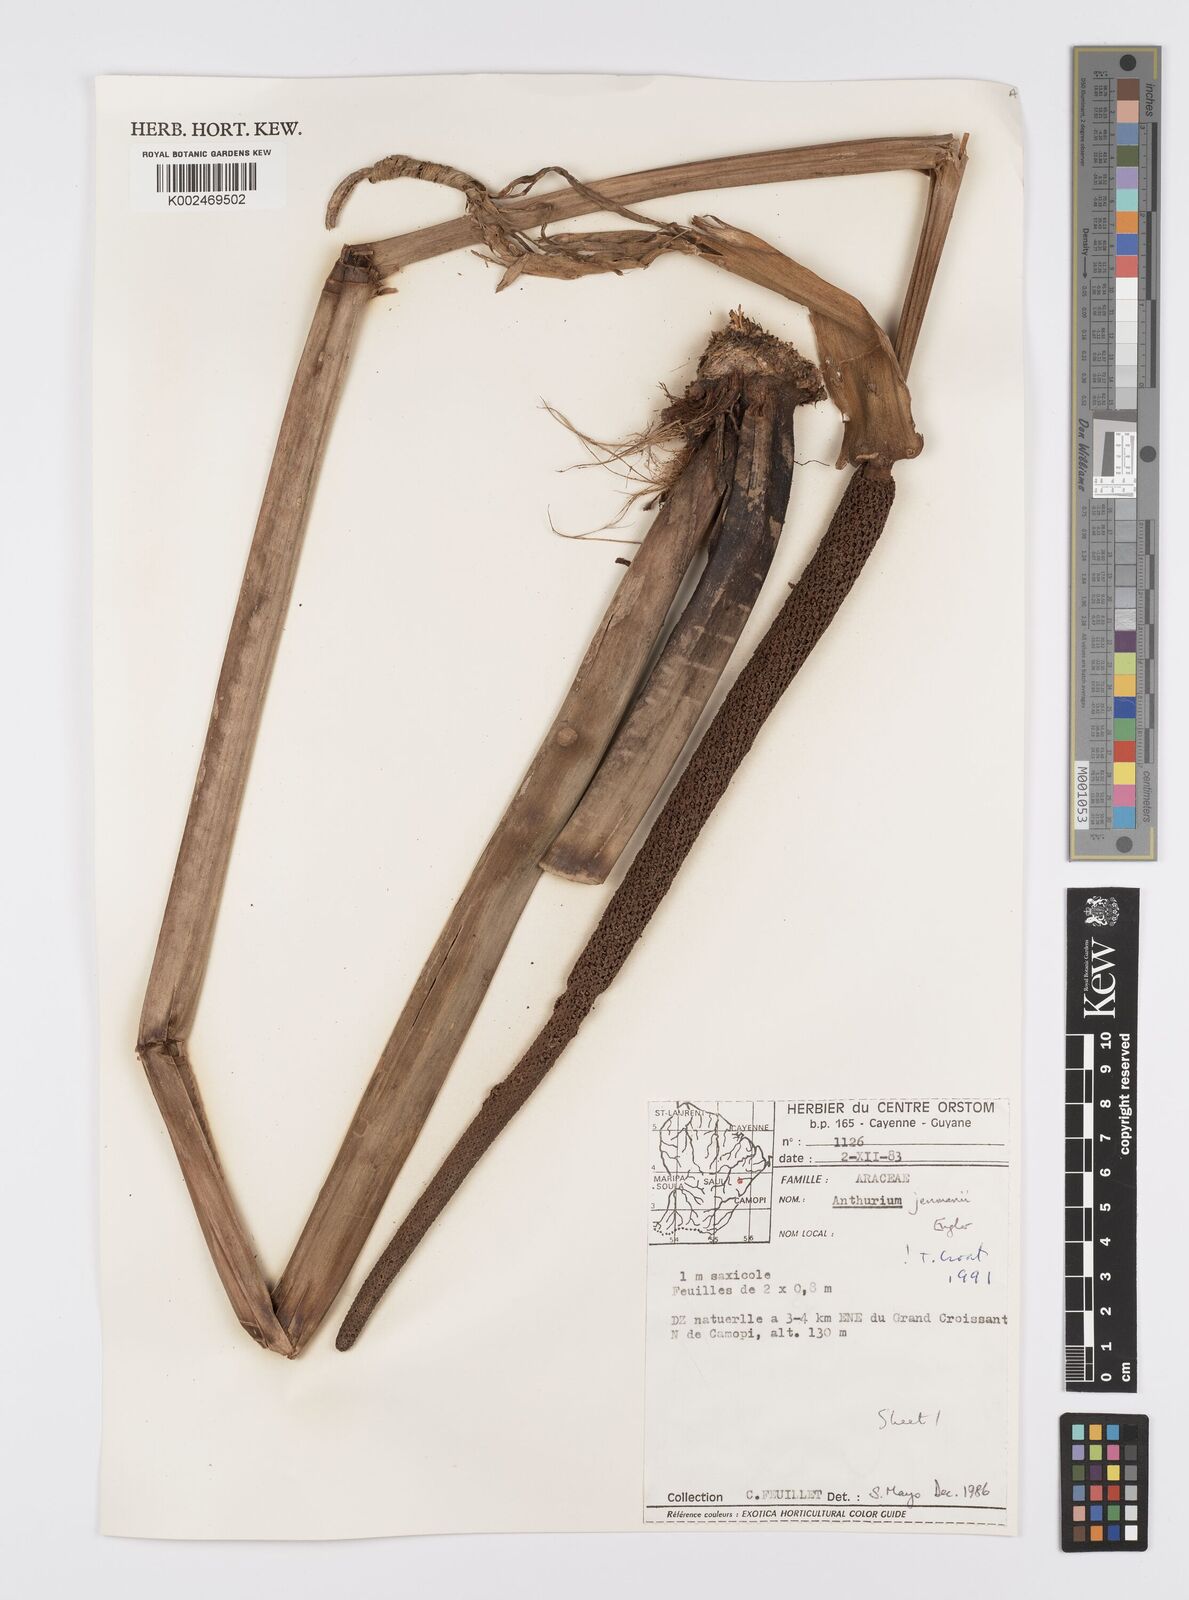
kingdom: Plantae
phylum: Tracheophyta
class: Liliopsida
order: Alismatales
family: Araceae
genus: Anthurium
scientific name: Anthurium jenmanii
